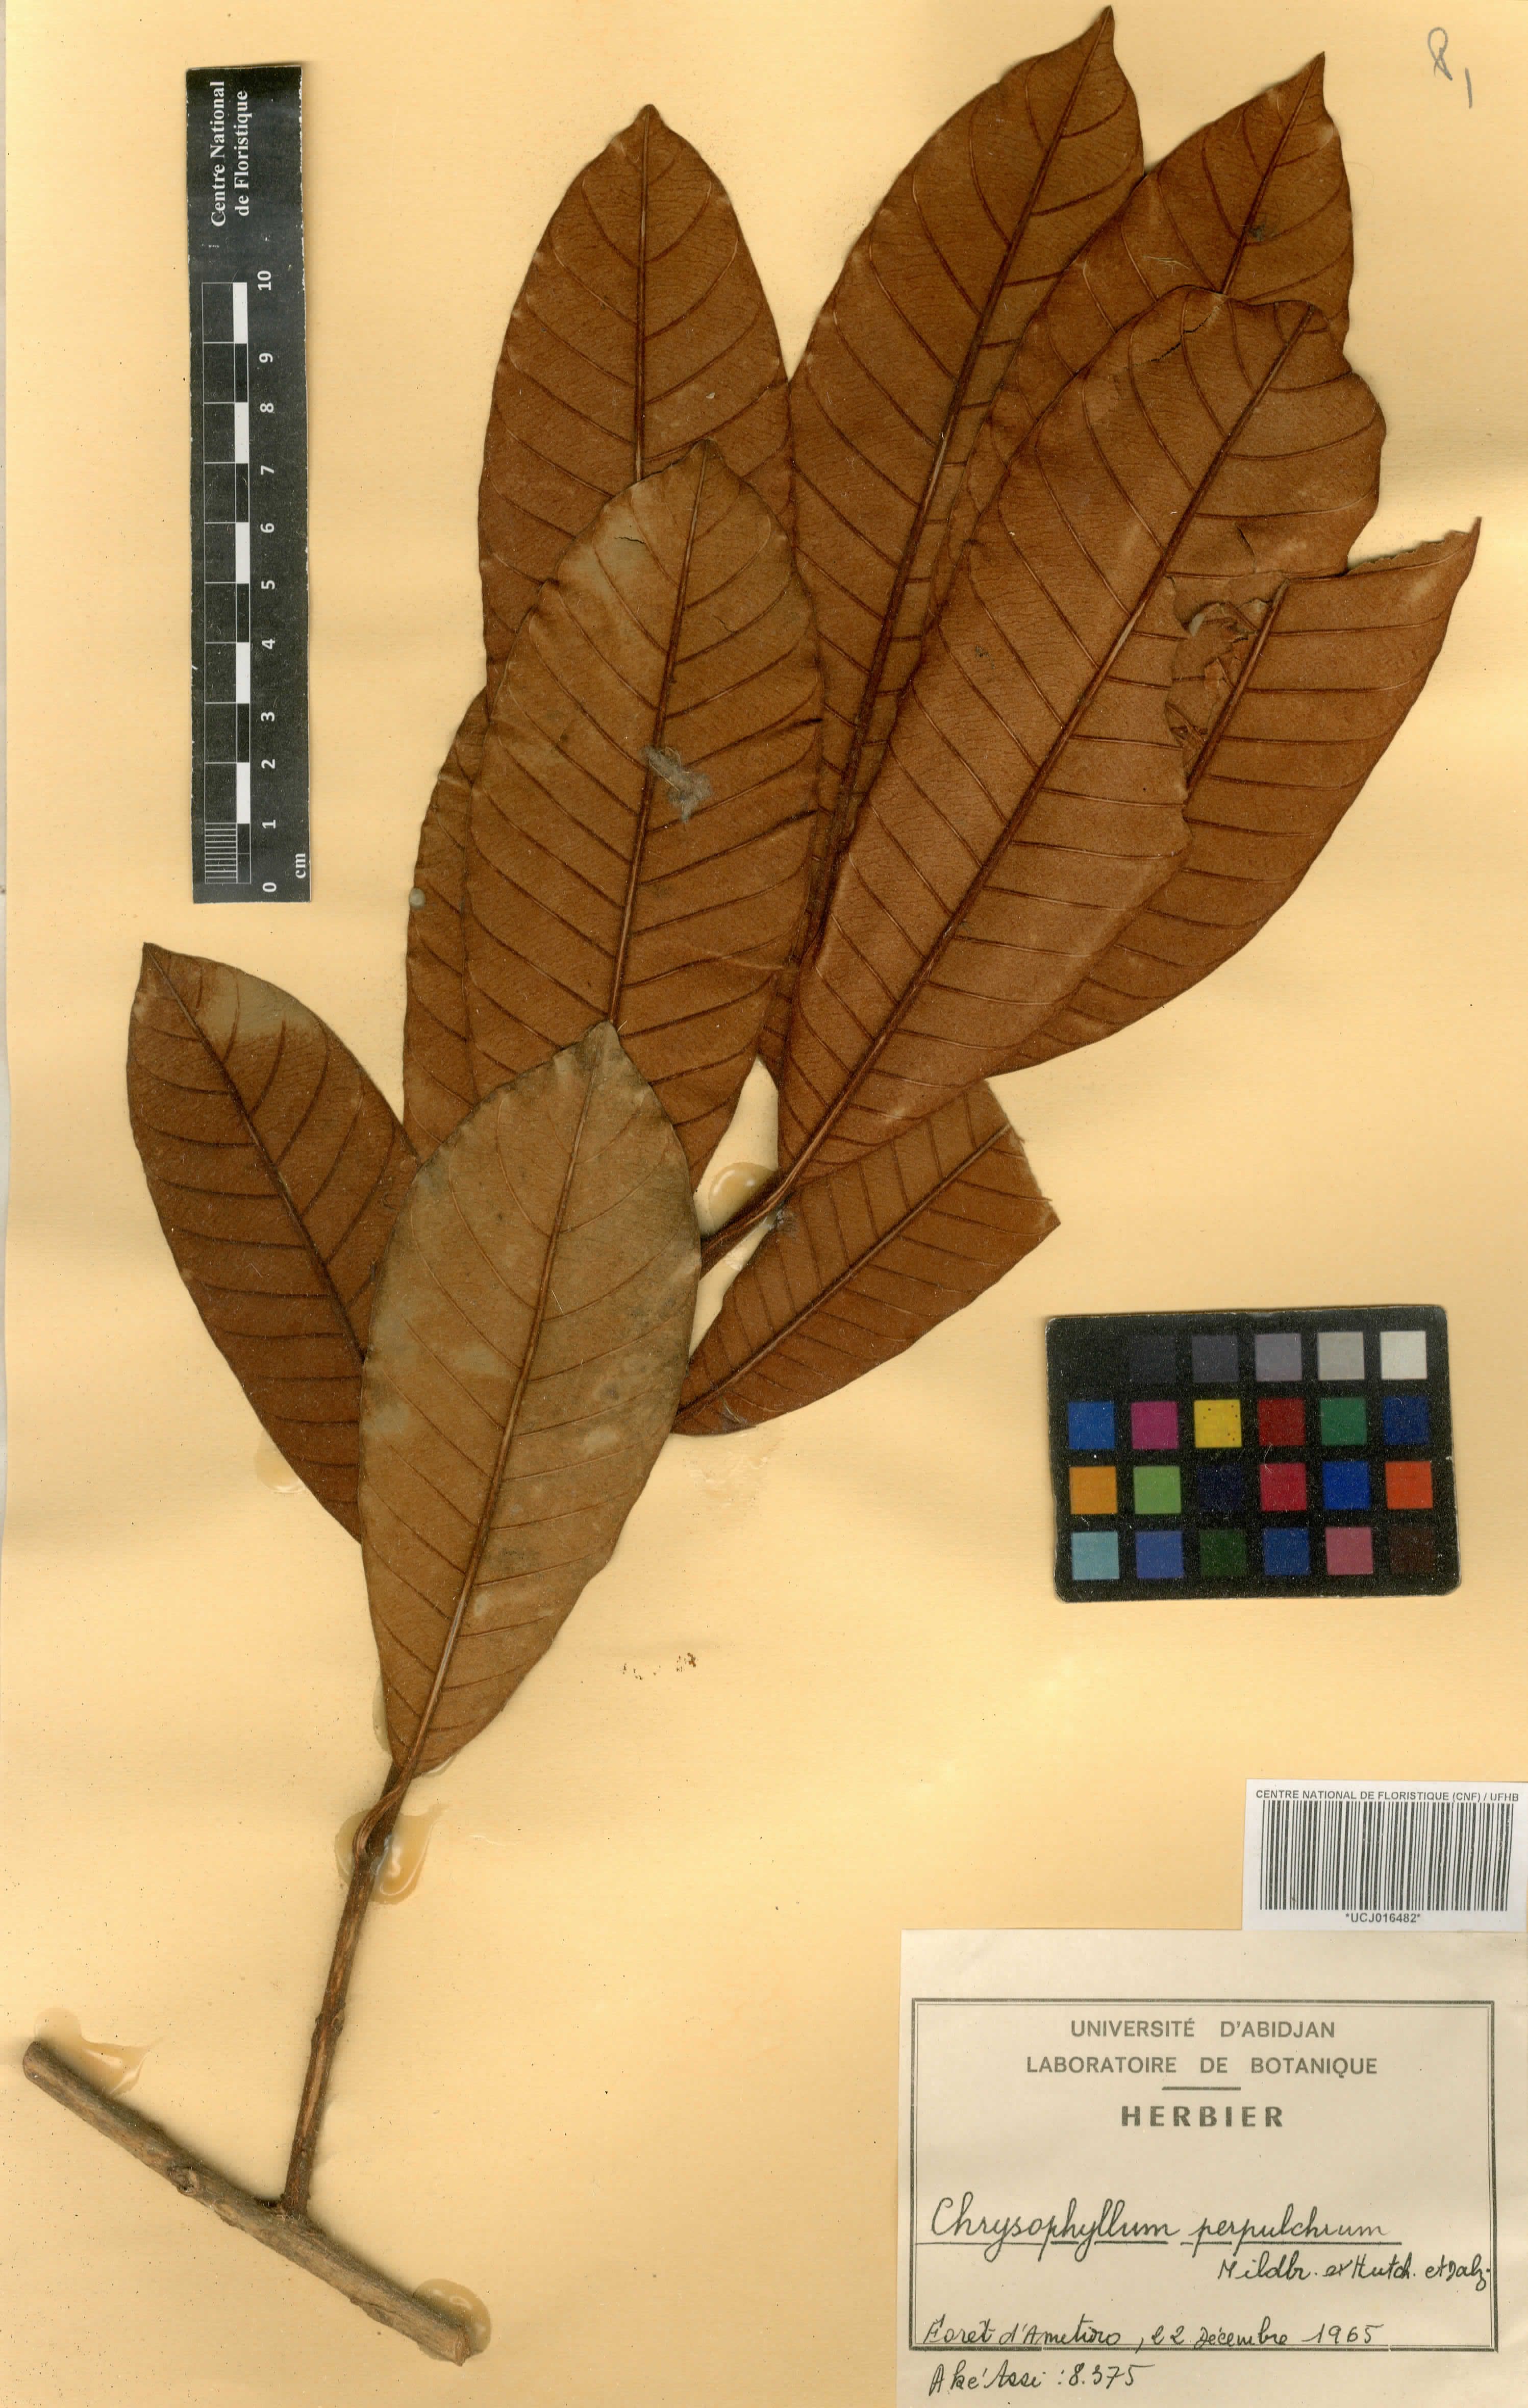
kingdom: Plantae
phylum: Tracheophyta
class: Magnoliopsida
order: Ericales
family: Sapotaceae
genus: Gambeya
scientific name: Gambeya perpulchra
